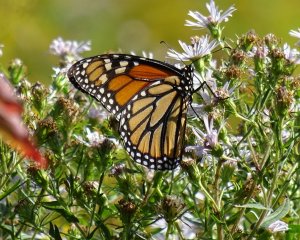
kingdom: Animalia
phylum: Arthropoda
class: Insecta
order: Lepidoptera
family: Nymphalidae
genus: Danaus
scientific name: Danaus plexippus
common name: Monarch
